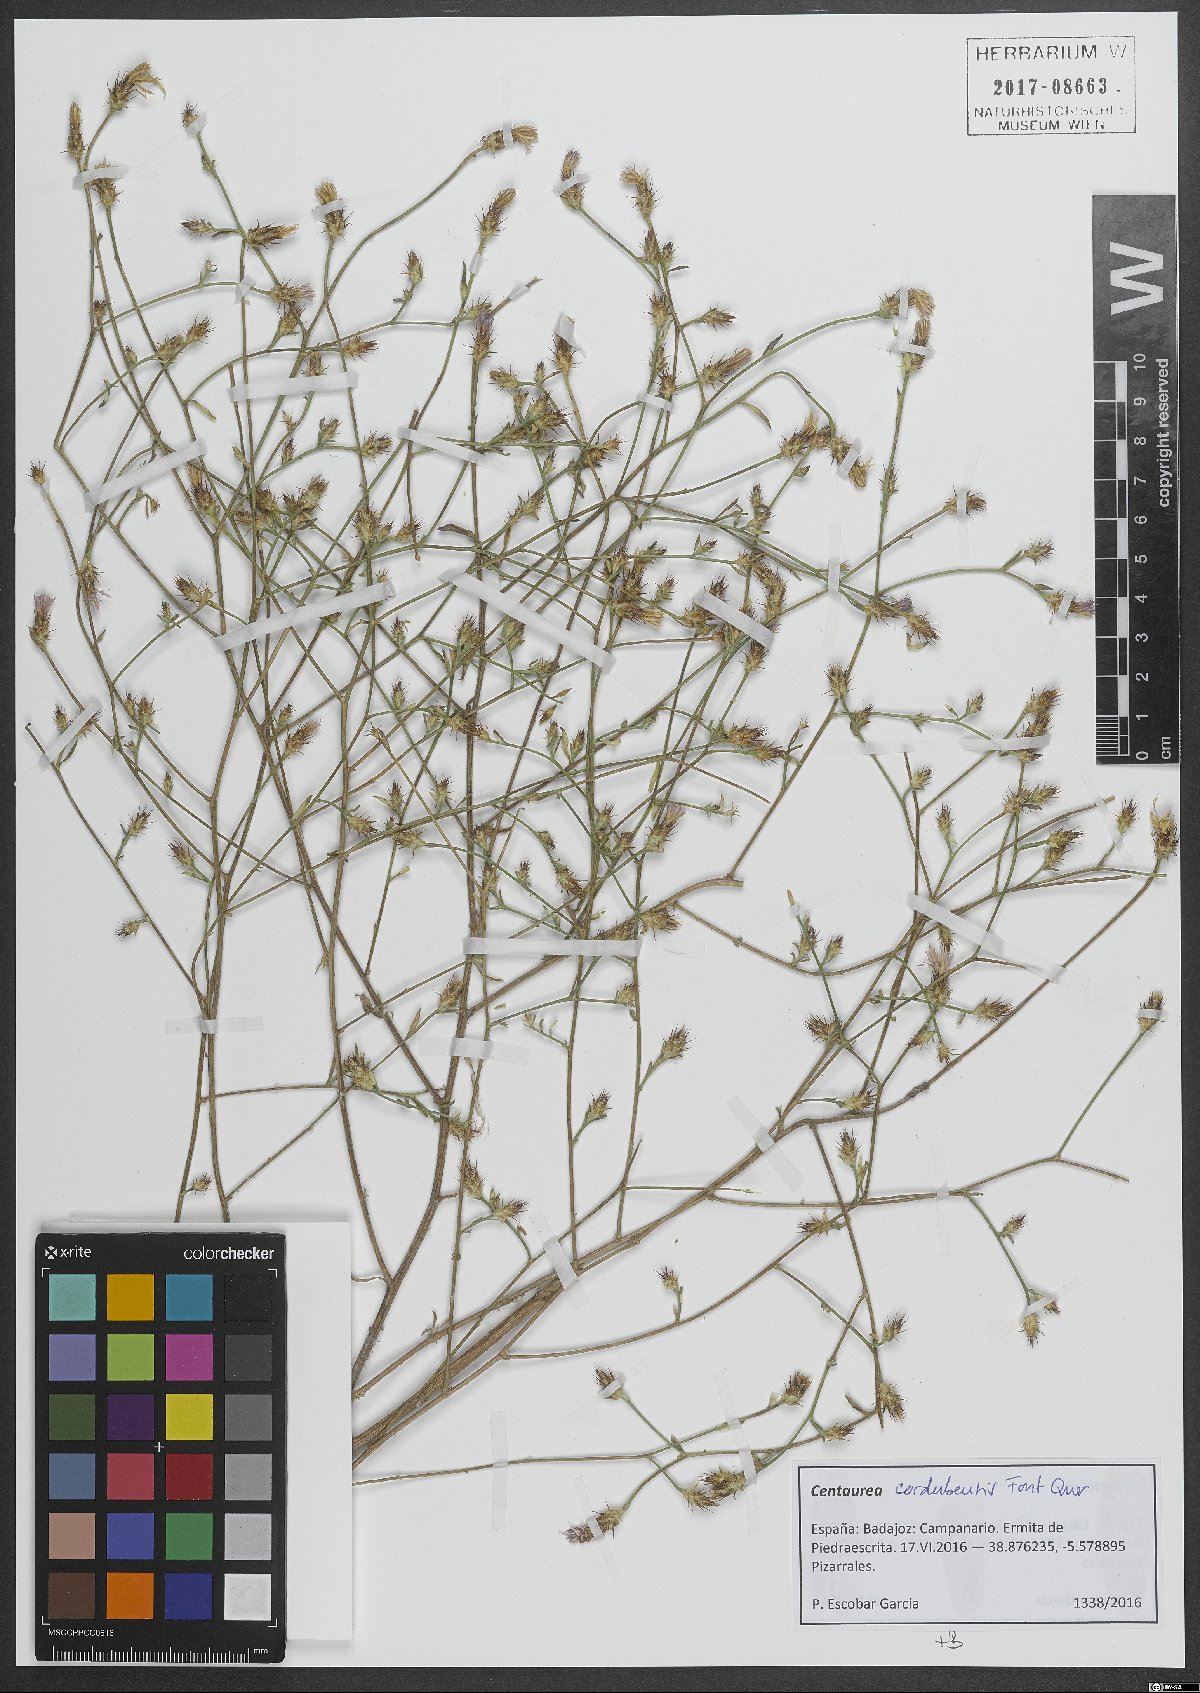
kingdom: Plantae
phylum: Tracheophyta
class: Magnoliopsida
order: Asterales
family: Asteraceae
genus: Centaurea
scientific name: Centaurea cordubensis
